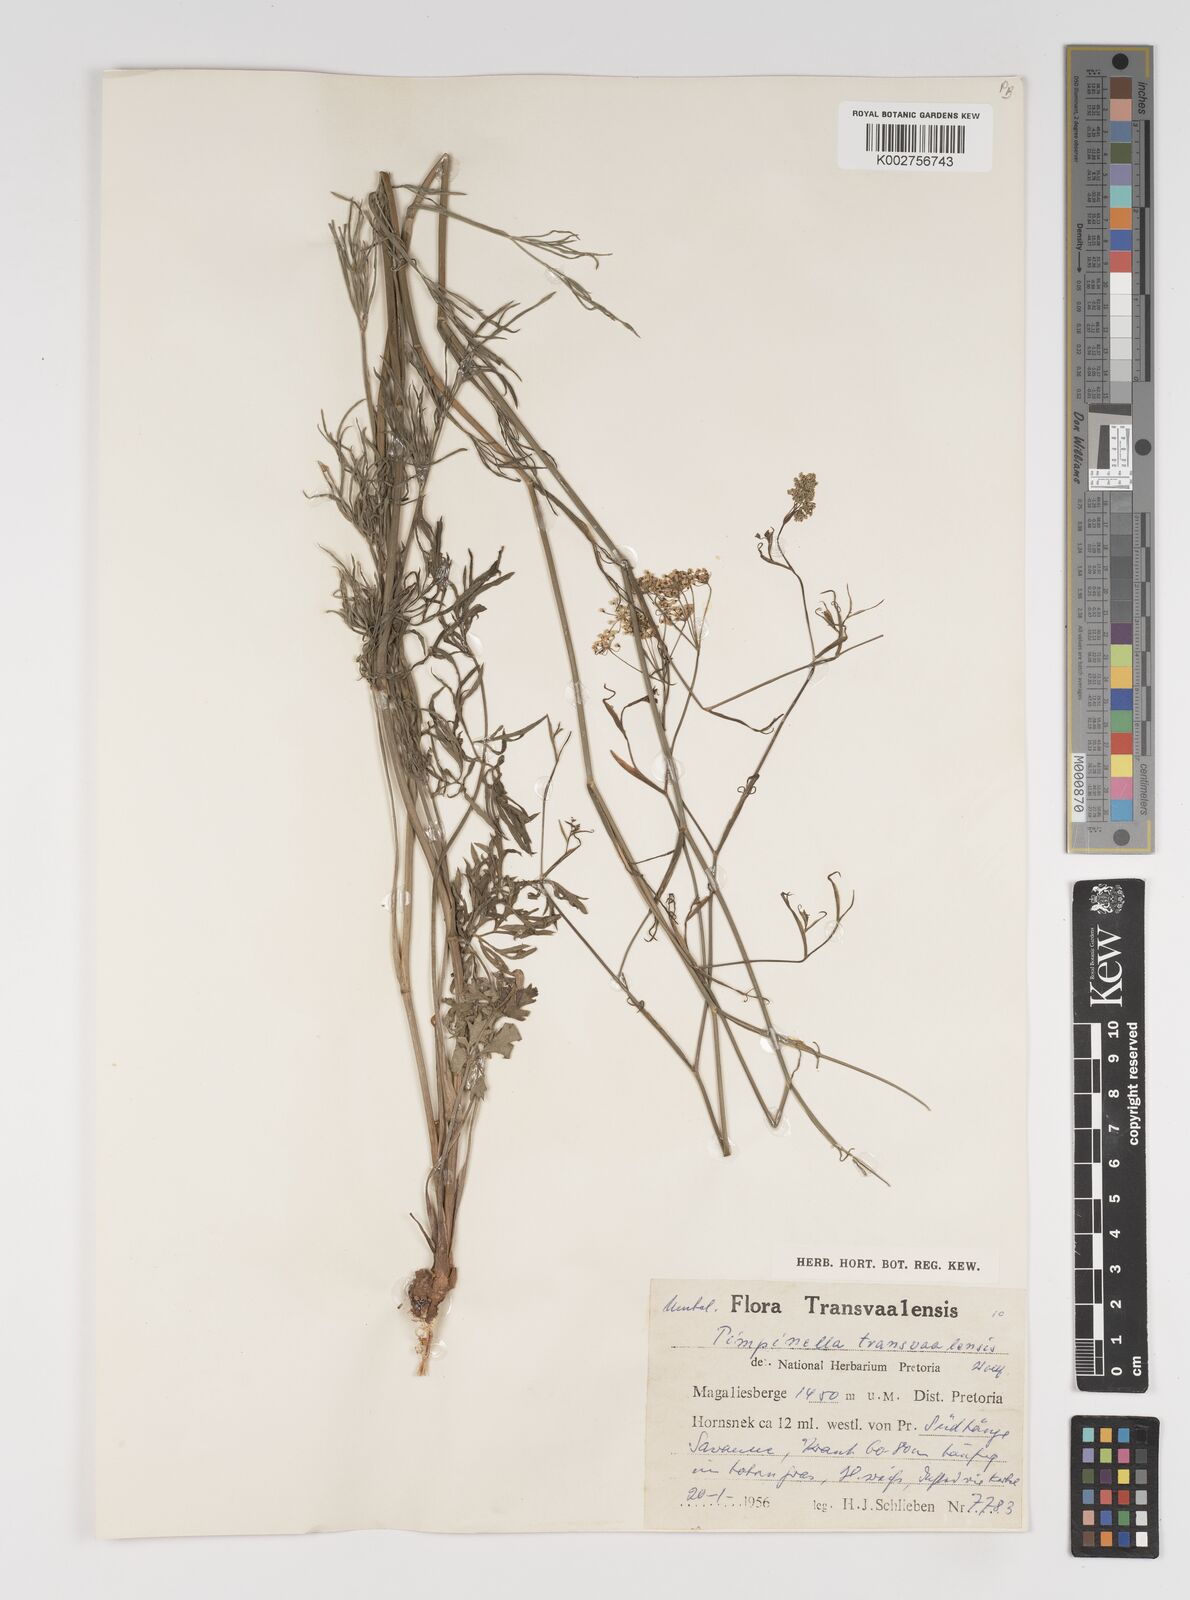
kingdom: Plantae
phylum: Tracheophyta
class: Magnoliopsida
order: Apiales
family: Apiaceae
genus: Pimpinella
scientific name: Pimpinella transvaalensis
